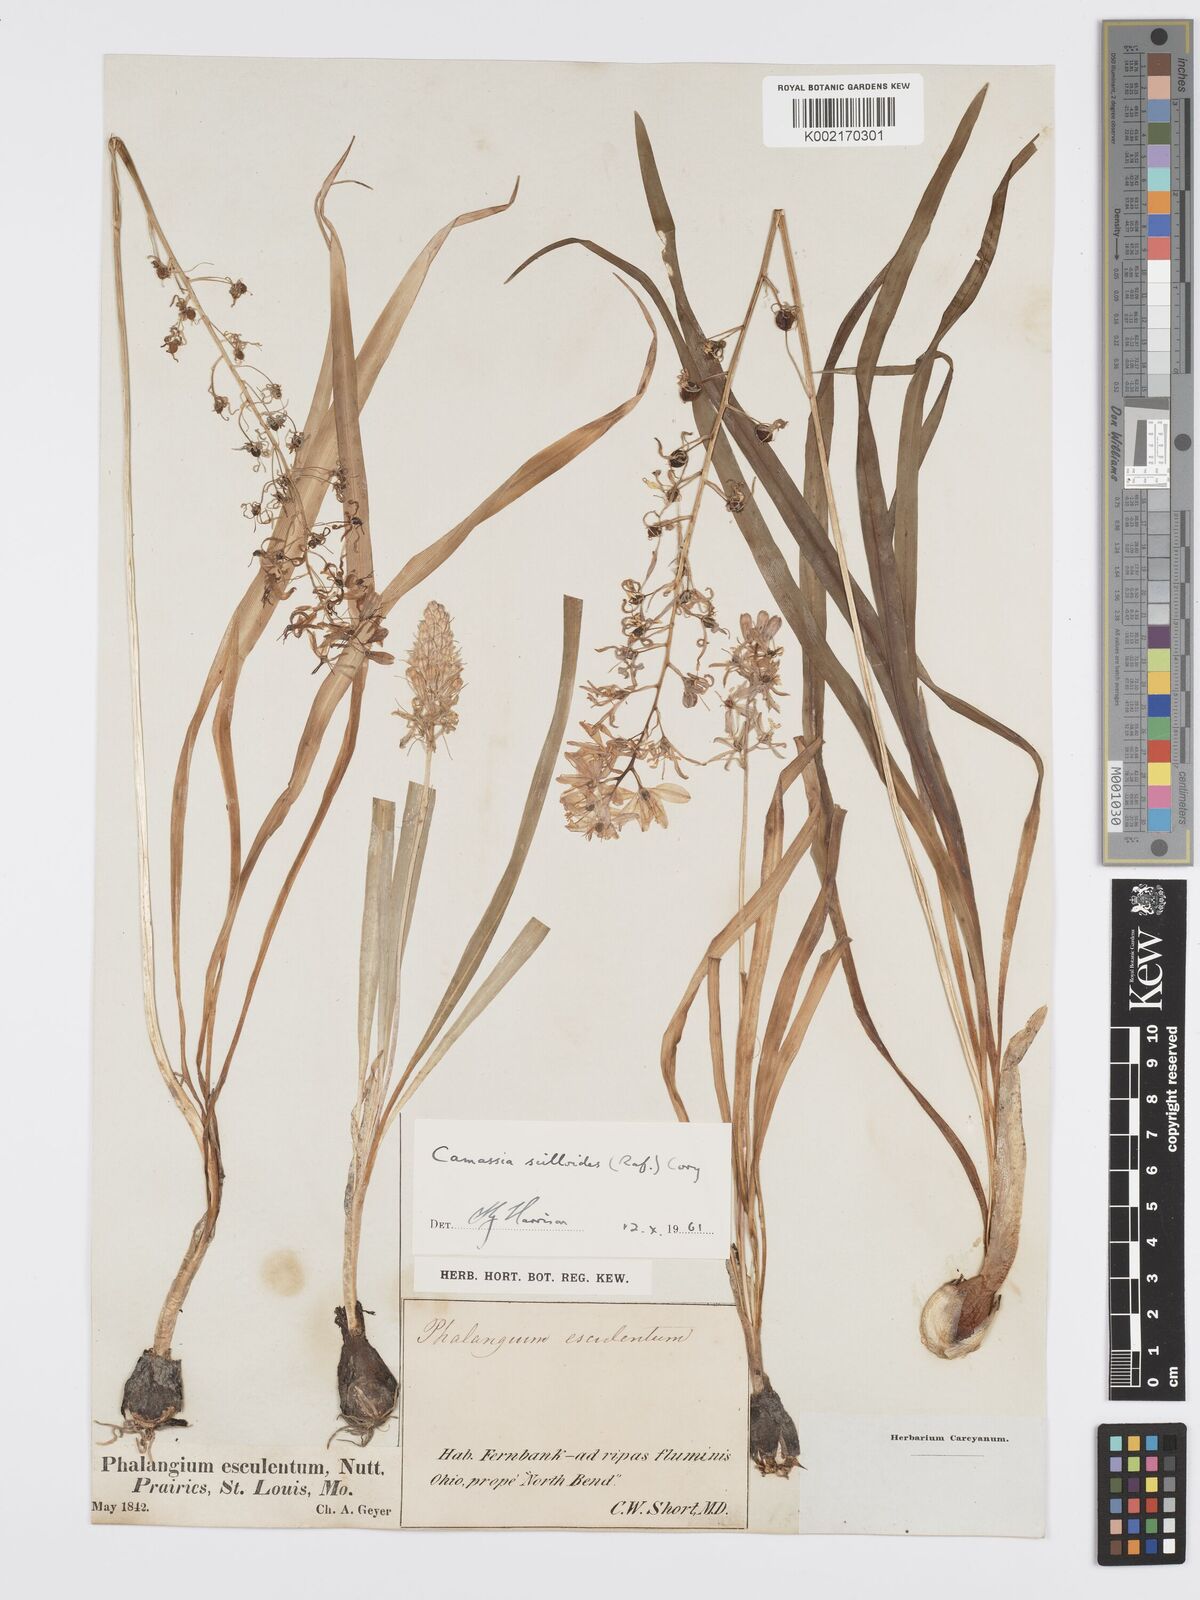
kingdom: Plantae
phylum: Tracheophyta
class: Liliopsida
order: Asparagales
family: Asparagaceae
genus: Camassia
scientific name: Camassia scilloides
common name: Wild hyacinth
